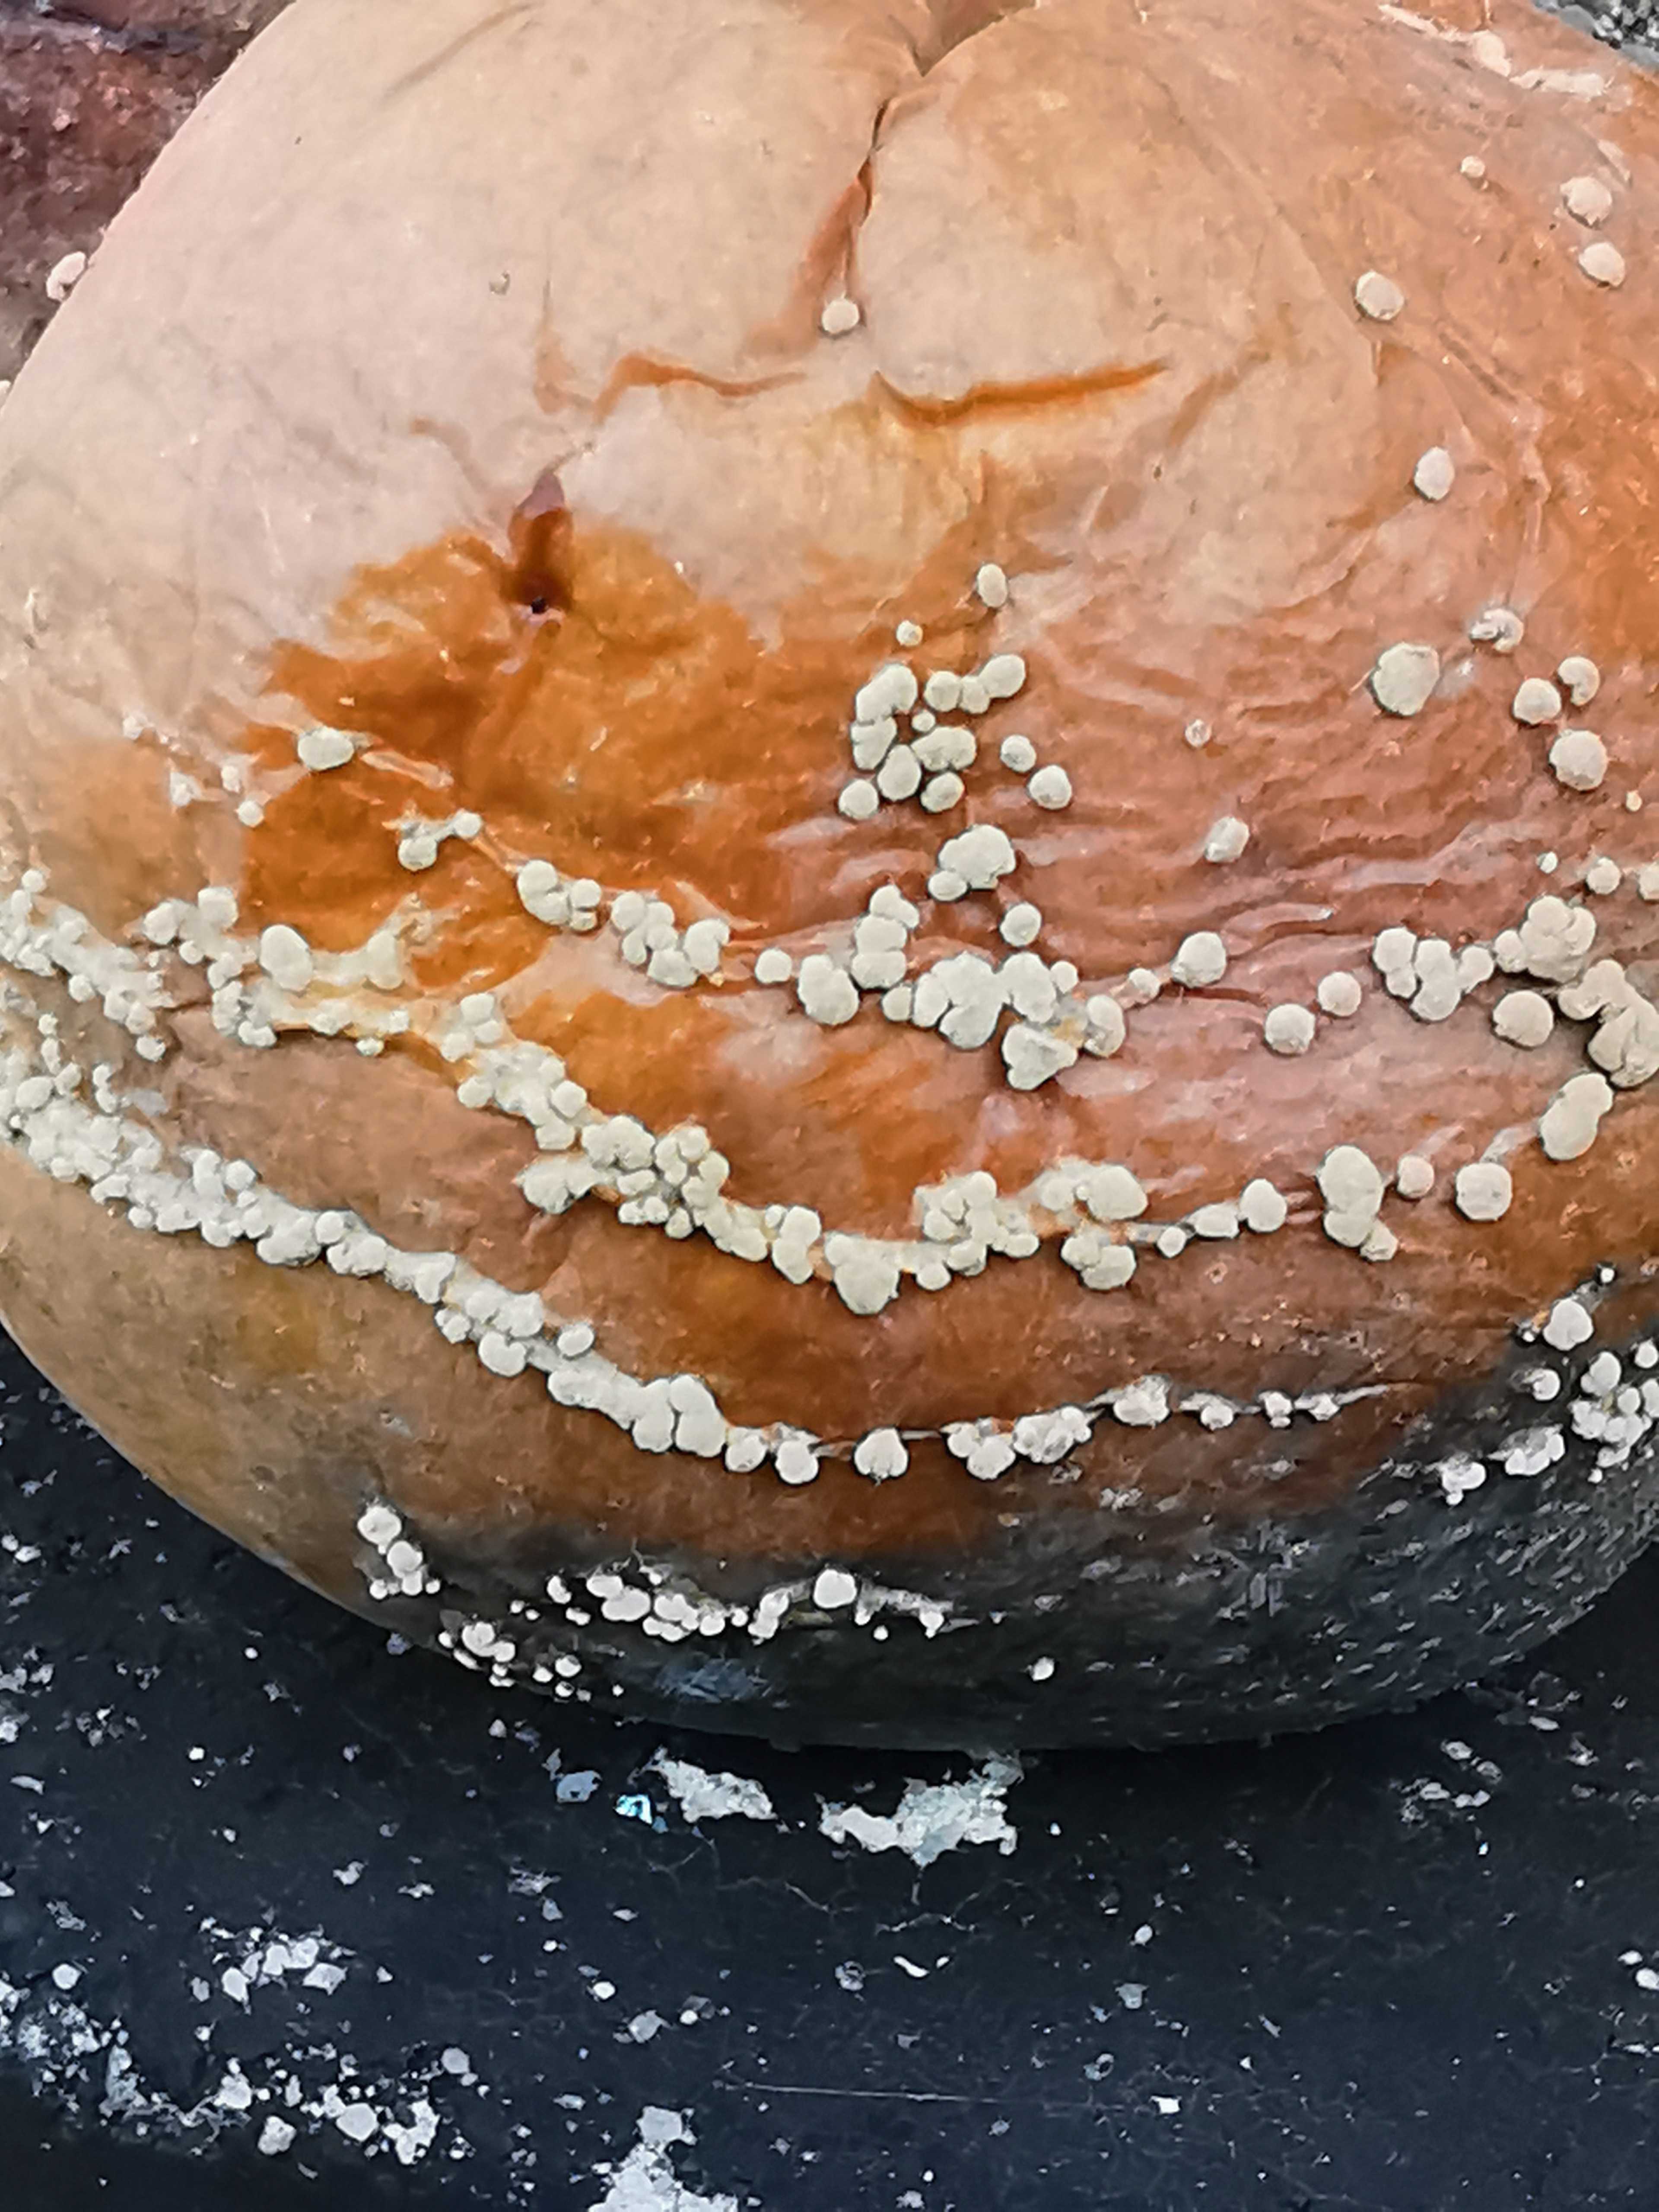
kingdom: Fungi
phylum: Ascomycota
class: Leotiomycetes
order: Helotiales
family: Sclerotiniaceae
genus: Monilinia
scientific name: Monilinia fructigena
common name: æble-knoldskive
